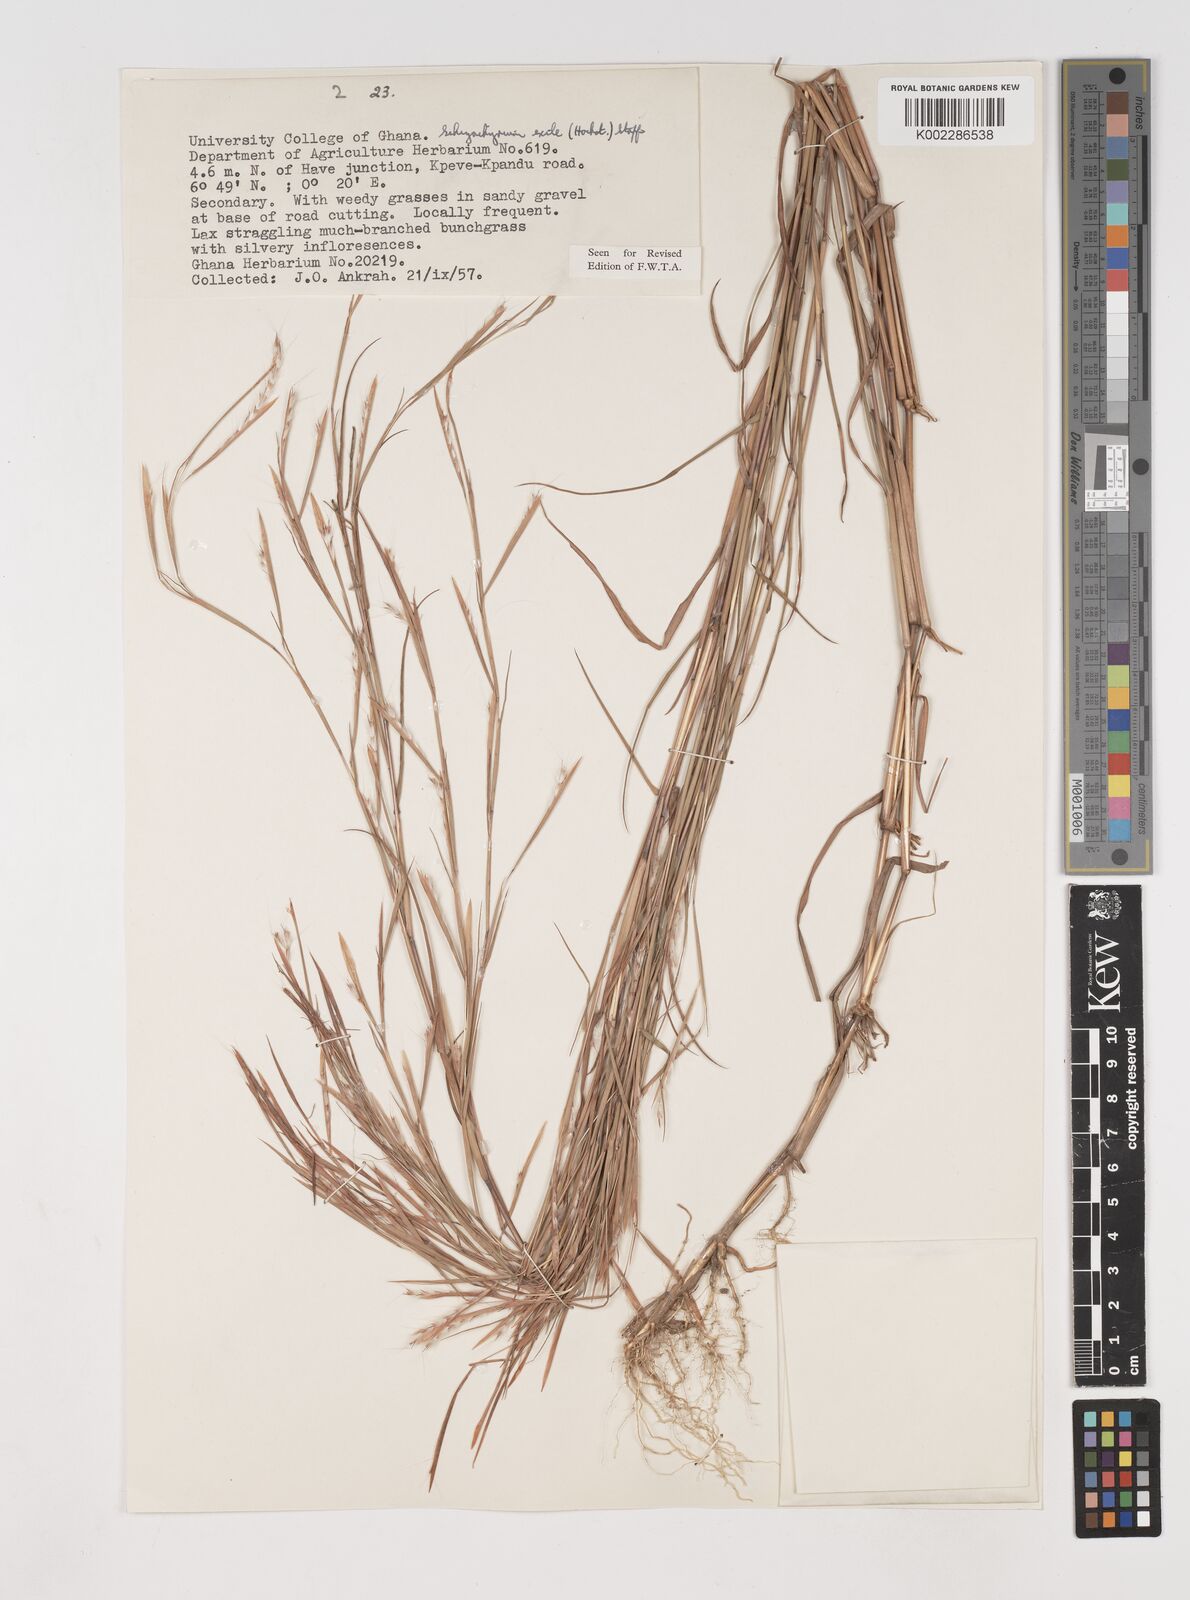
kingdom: Plantae
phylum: Tracheophyta
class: Liliopsida
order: Poales
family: Poaceae
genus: Schizachyrium
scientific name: Schizachyrium exile
